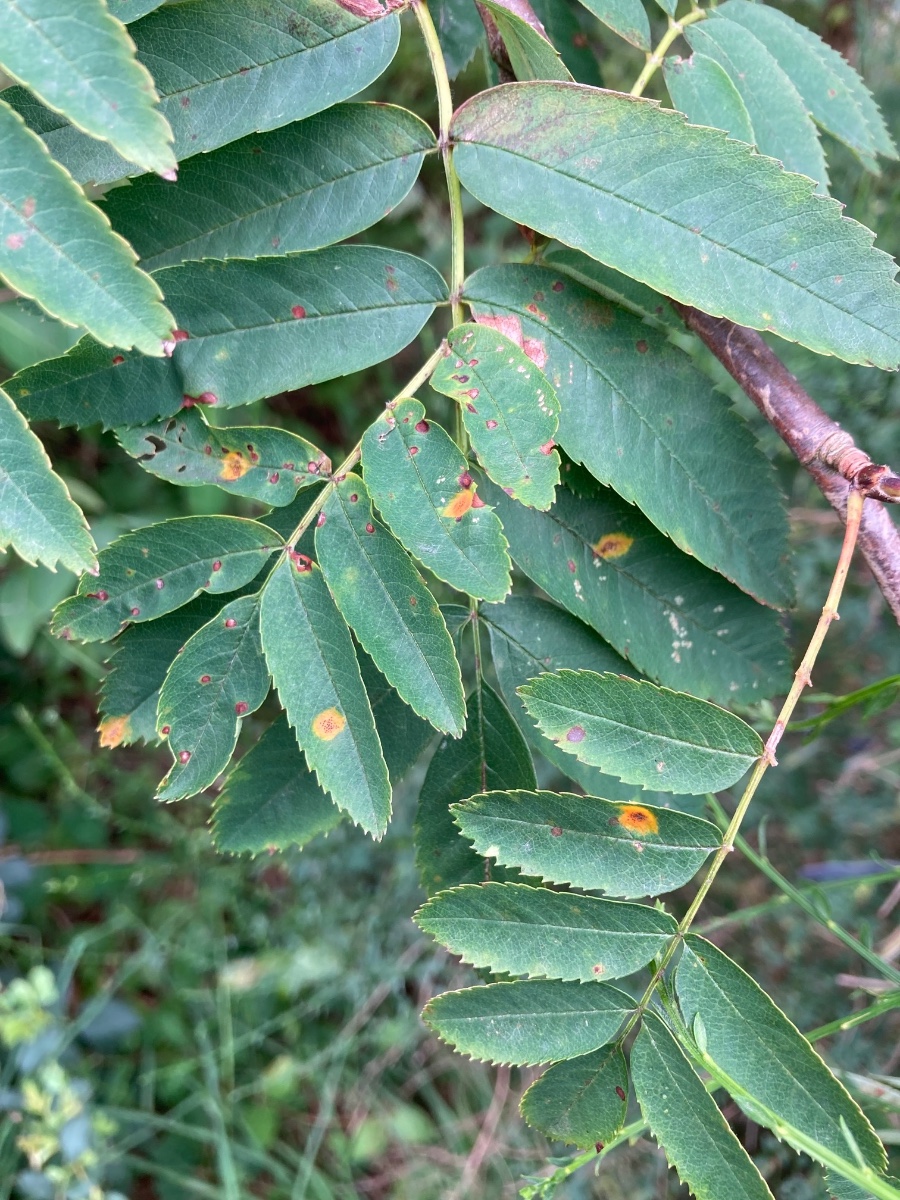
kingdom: Fungi
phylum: Basidiomycota
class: Pucciniomycetes
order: Pucciniales
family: Gymnosporangiaceae
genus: Gymnosporangium
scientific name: Gymnosporangium cornutum
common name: rønnehorn-bævrerust
